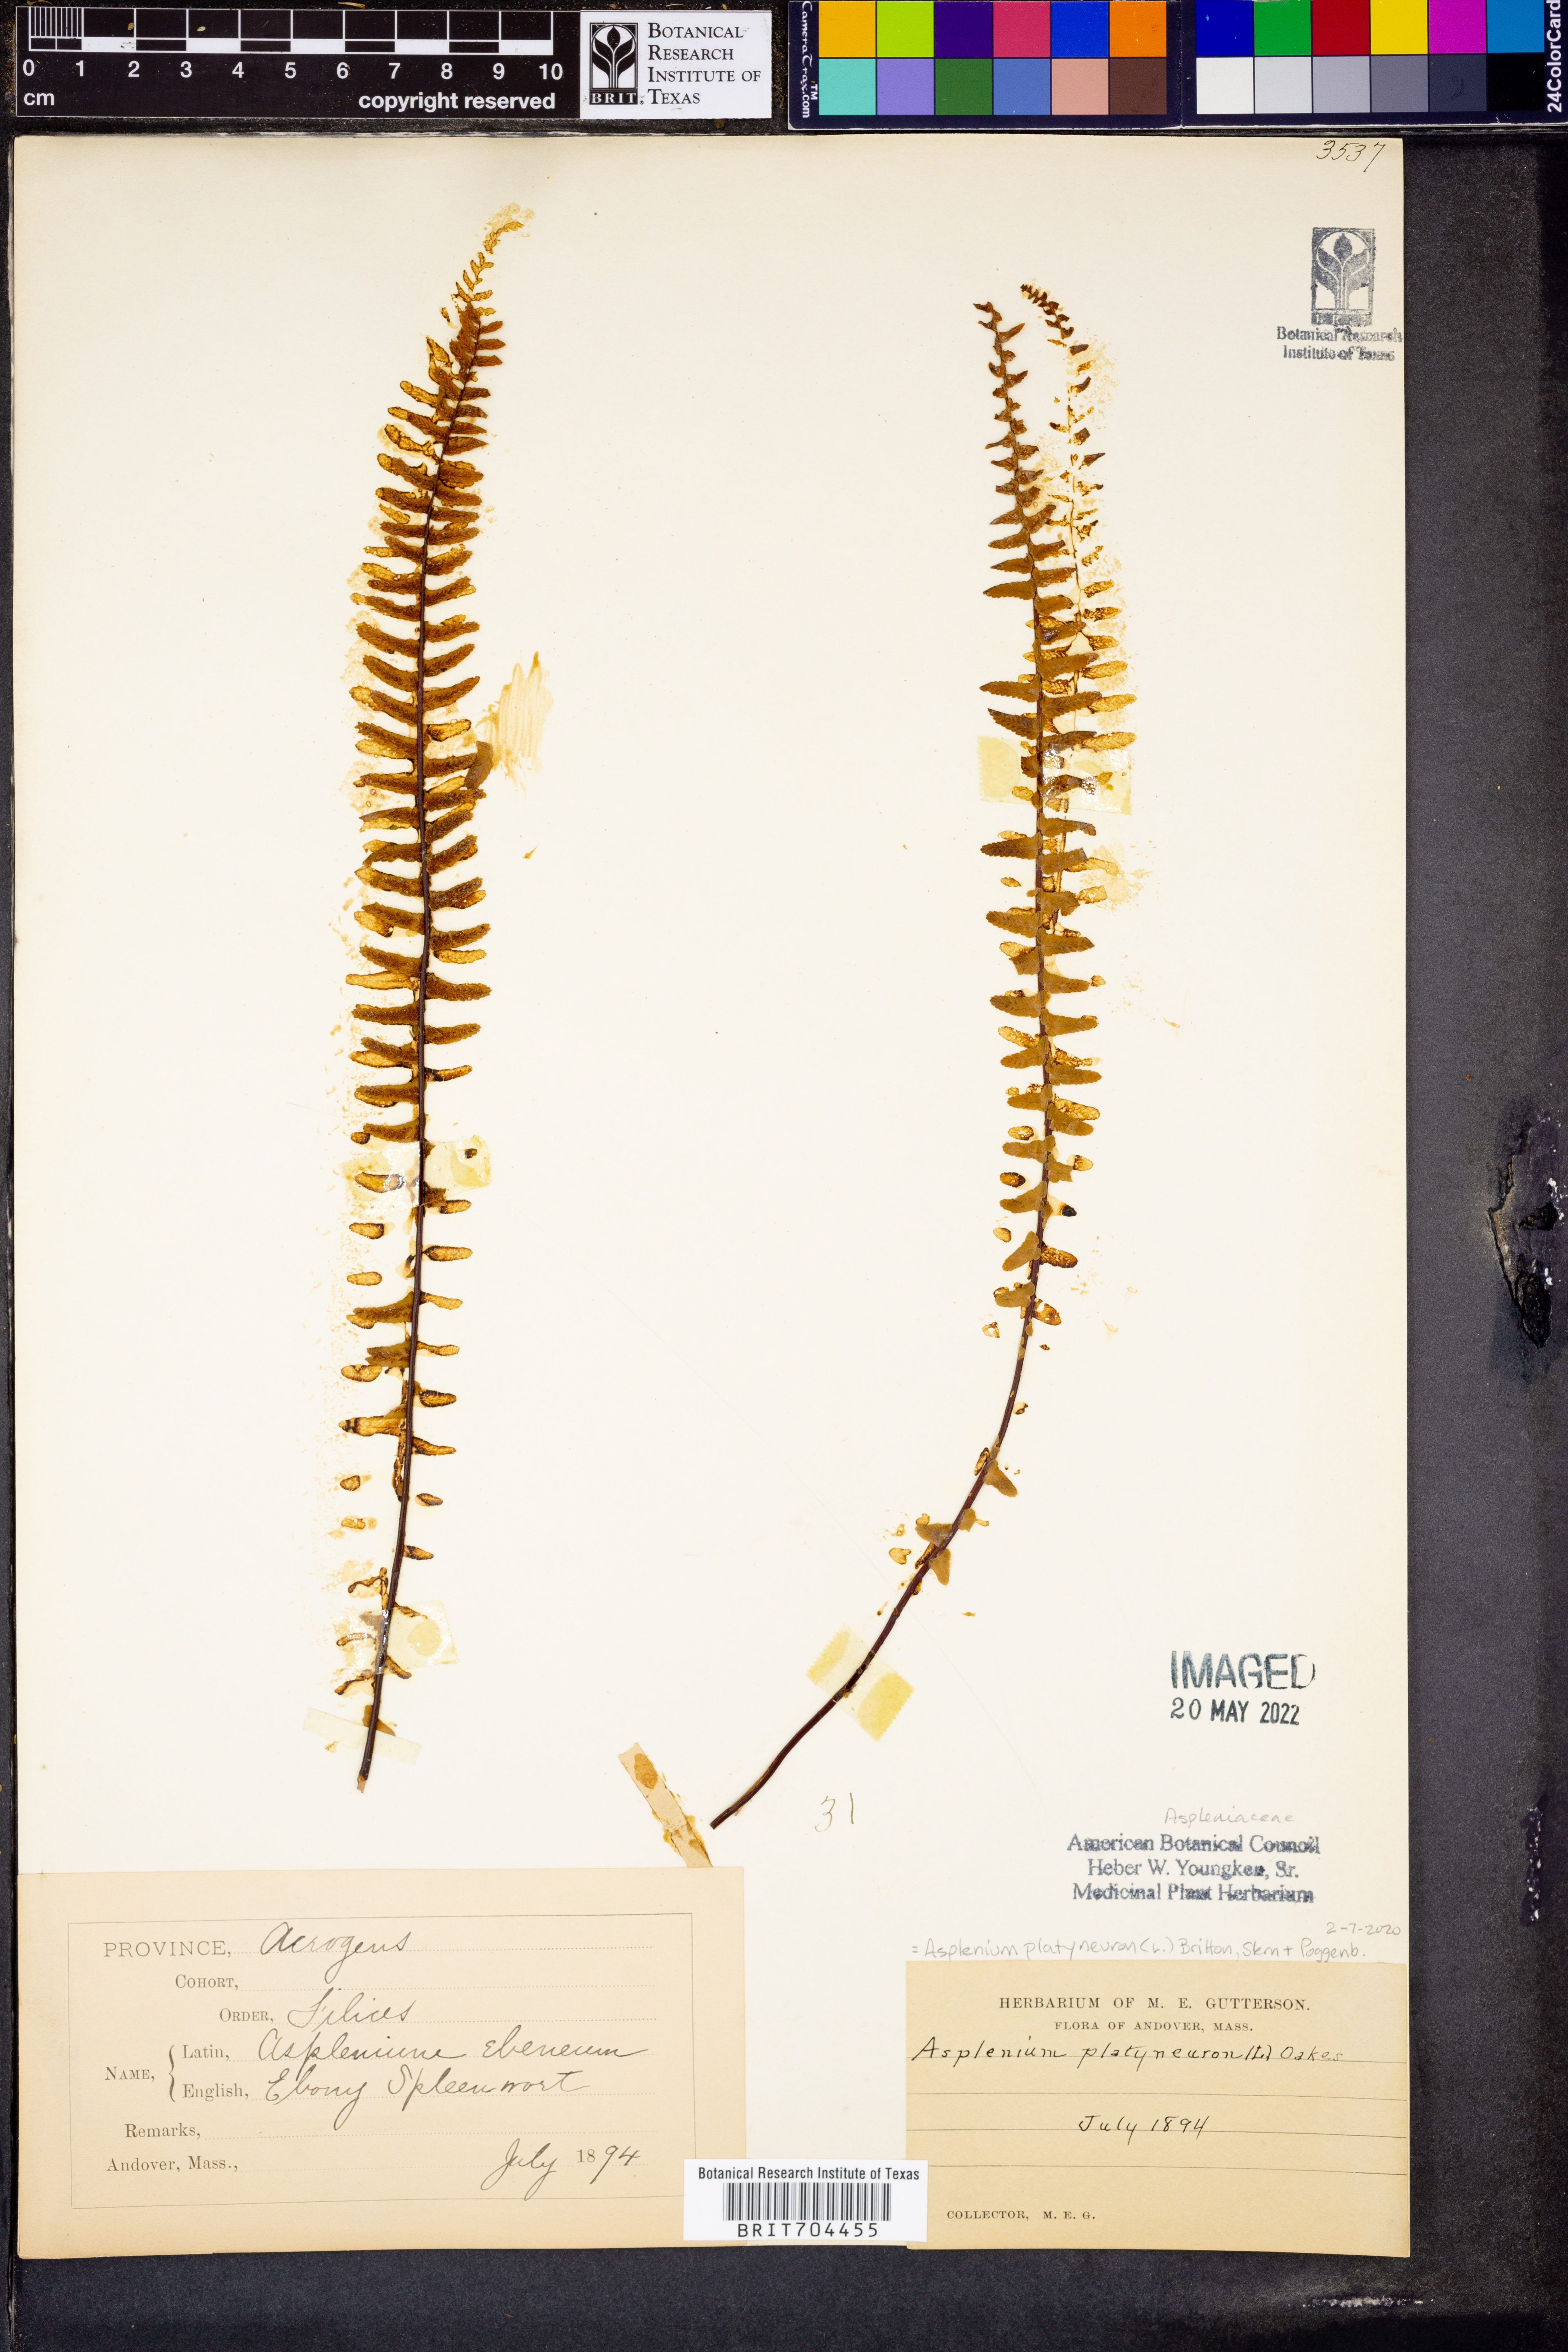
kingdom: Plantae
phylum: Tracheophyta
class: Polypodiopsida
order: Polypodiales
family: Aspleniaceae
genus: Asplenium
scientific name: Asplenium platyneuron
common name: Ebony spleenwort
